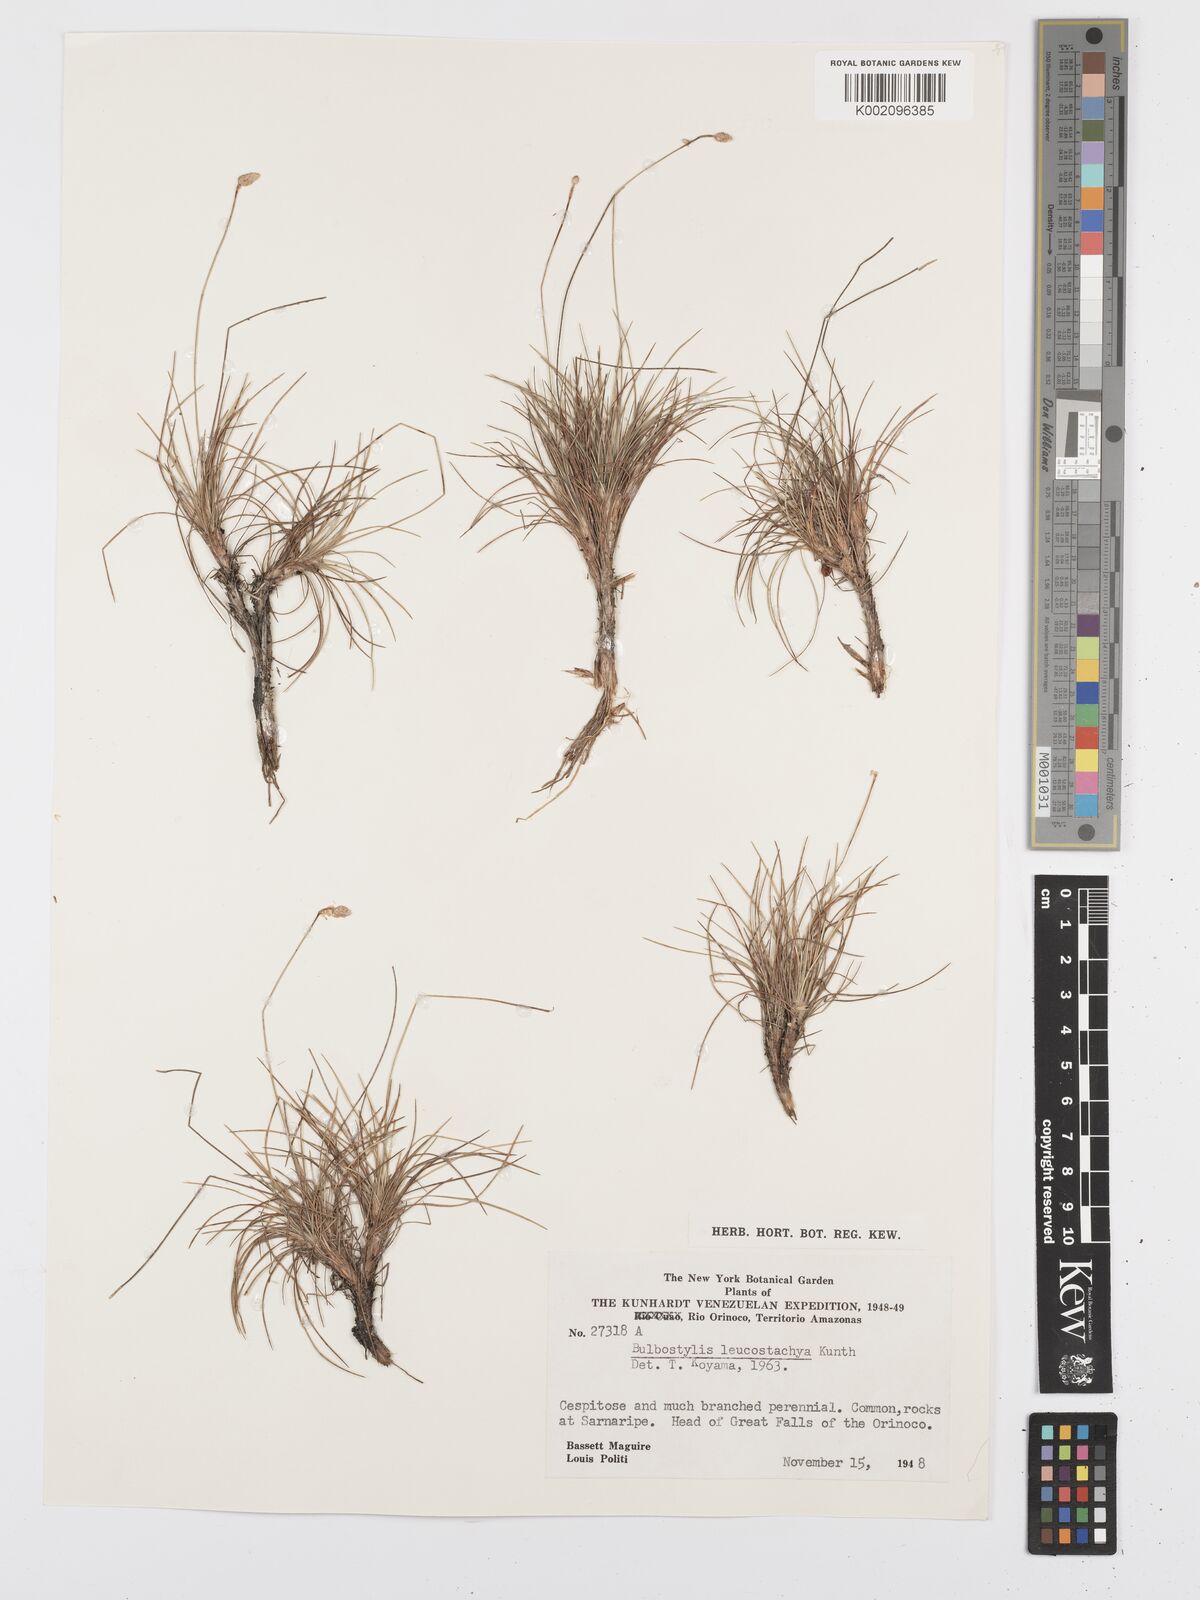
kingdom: Plantae
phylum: Tracheophyta
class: Liliopsida
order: Poales
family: Cyperaceae
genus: Bulbostylis
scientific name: Bulbostylis leucostachya
